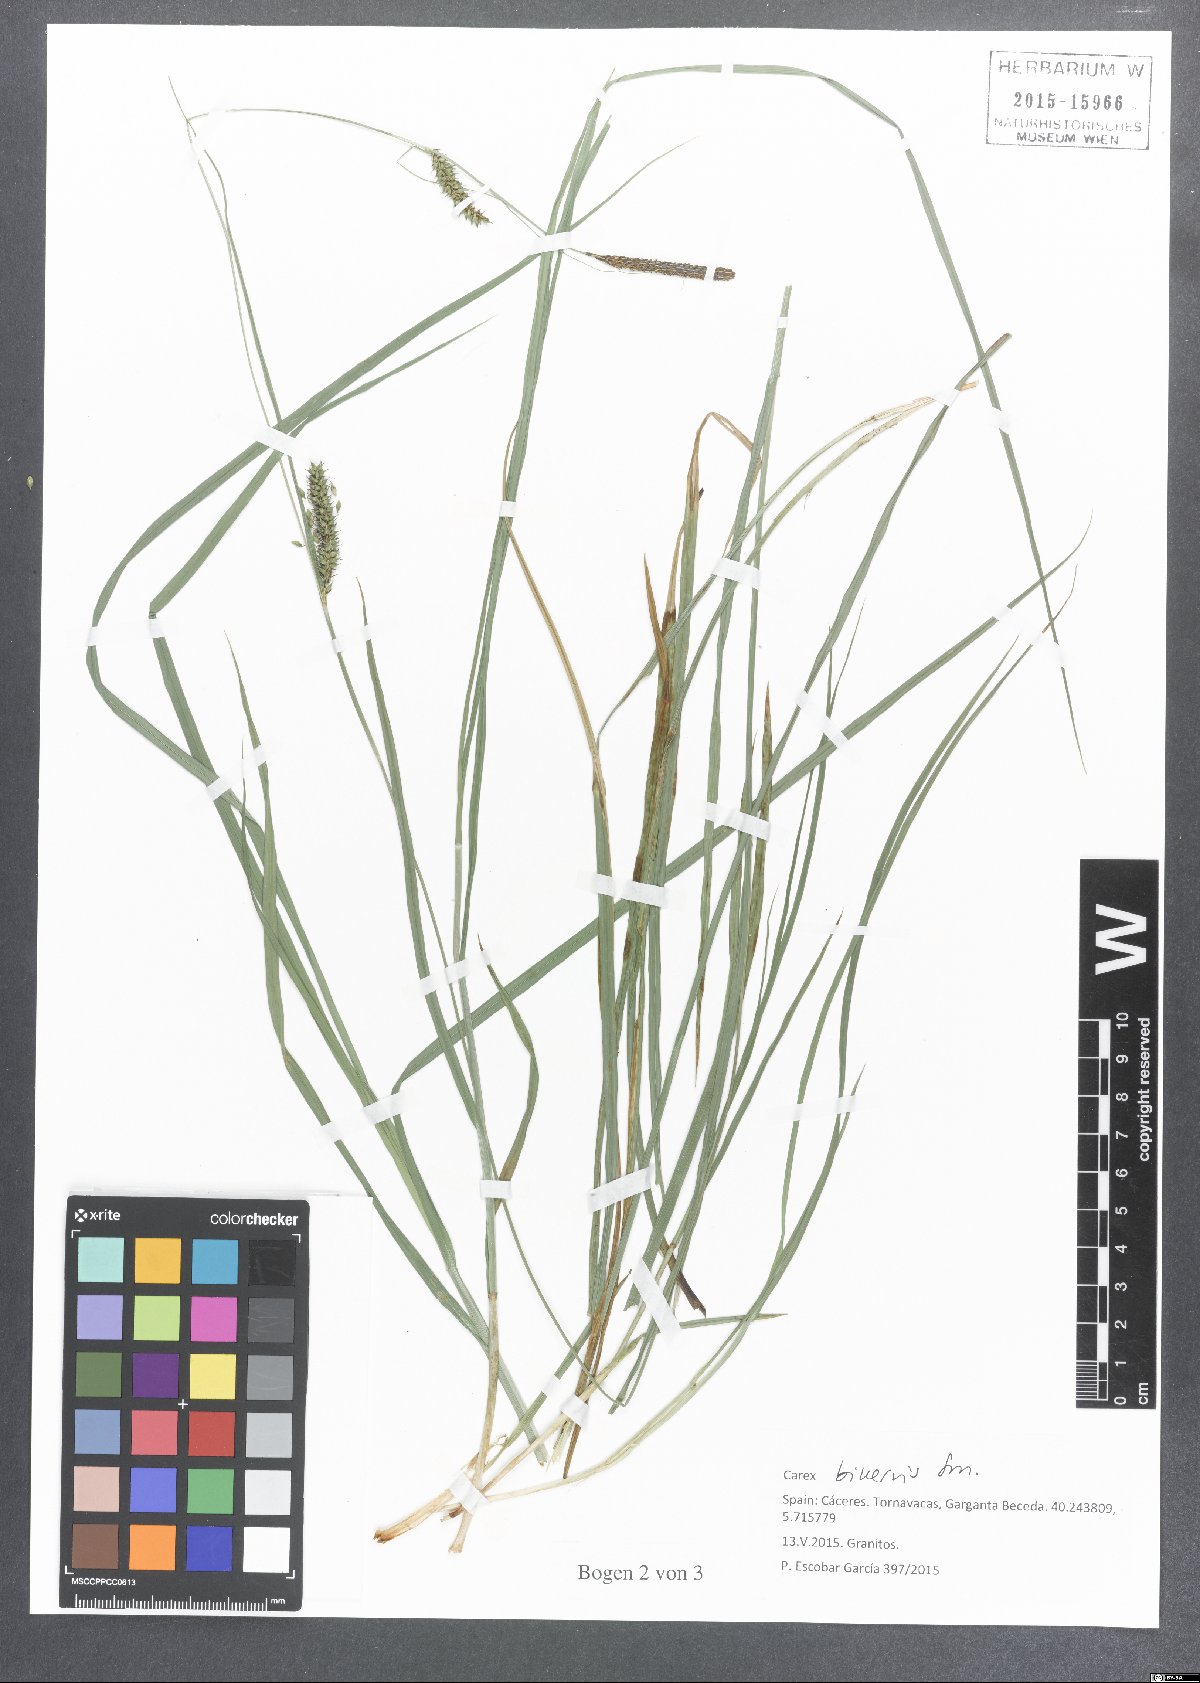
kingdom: Plantae
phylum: Tracheophyta
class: Liliopsida
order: Poales
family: Cyperaceae
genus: Carex
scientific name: Carex binervis
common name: Green-ribbed sedge
